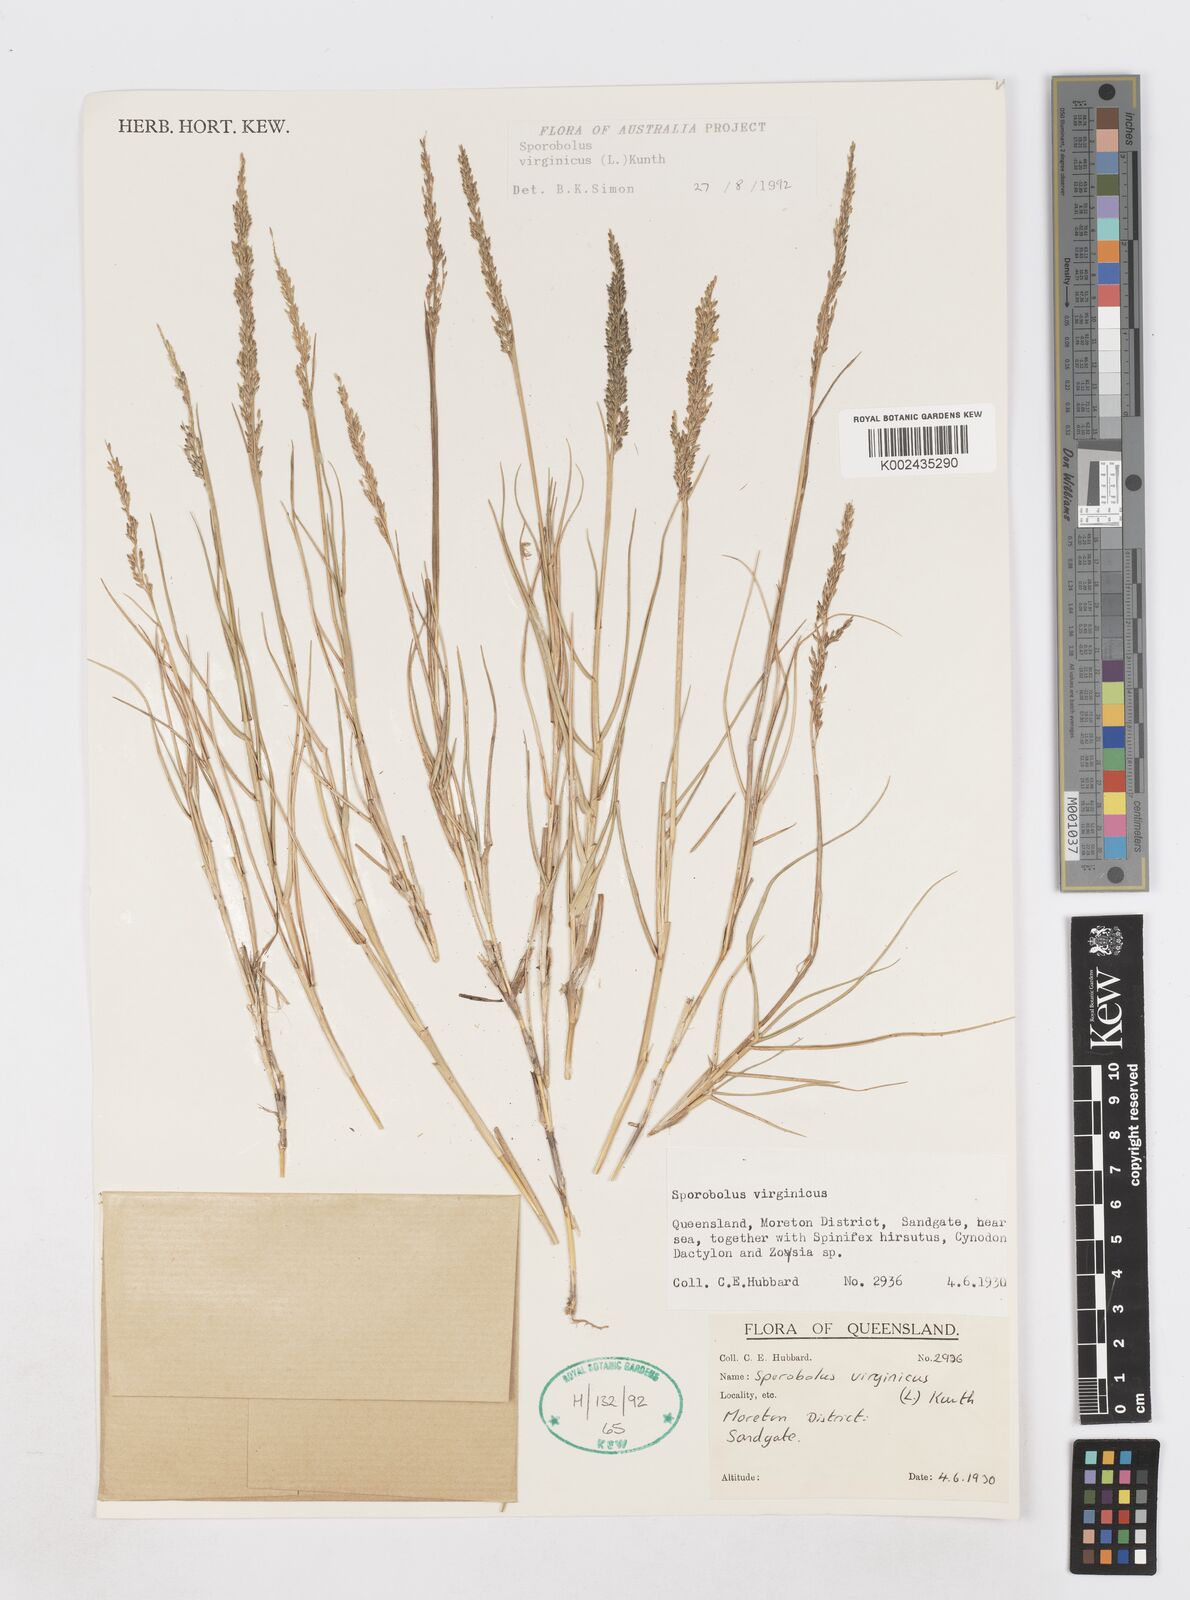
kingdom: Plantae
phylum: Tracheophyta
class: Liliopsida
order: Poales
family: Poaceae
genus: Sporobolus
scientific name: Sporobolus virginicus
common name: Beach dropseed
